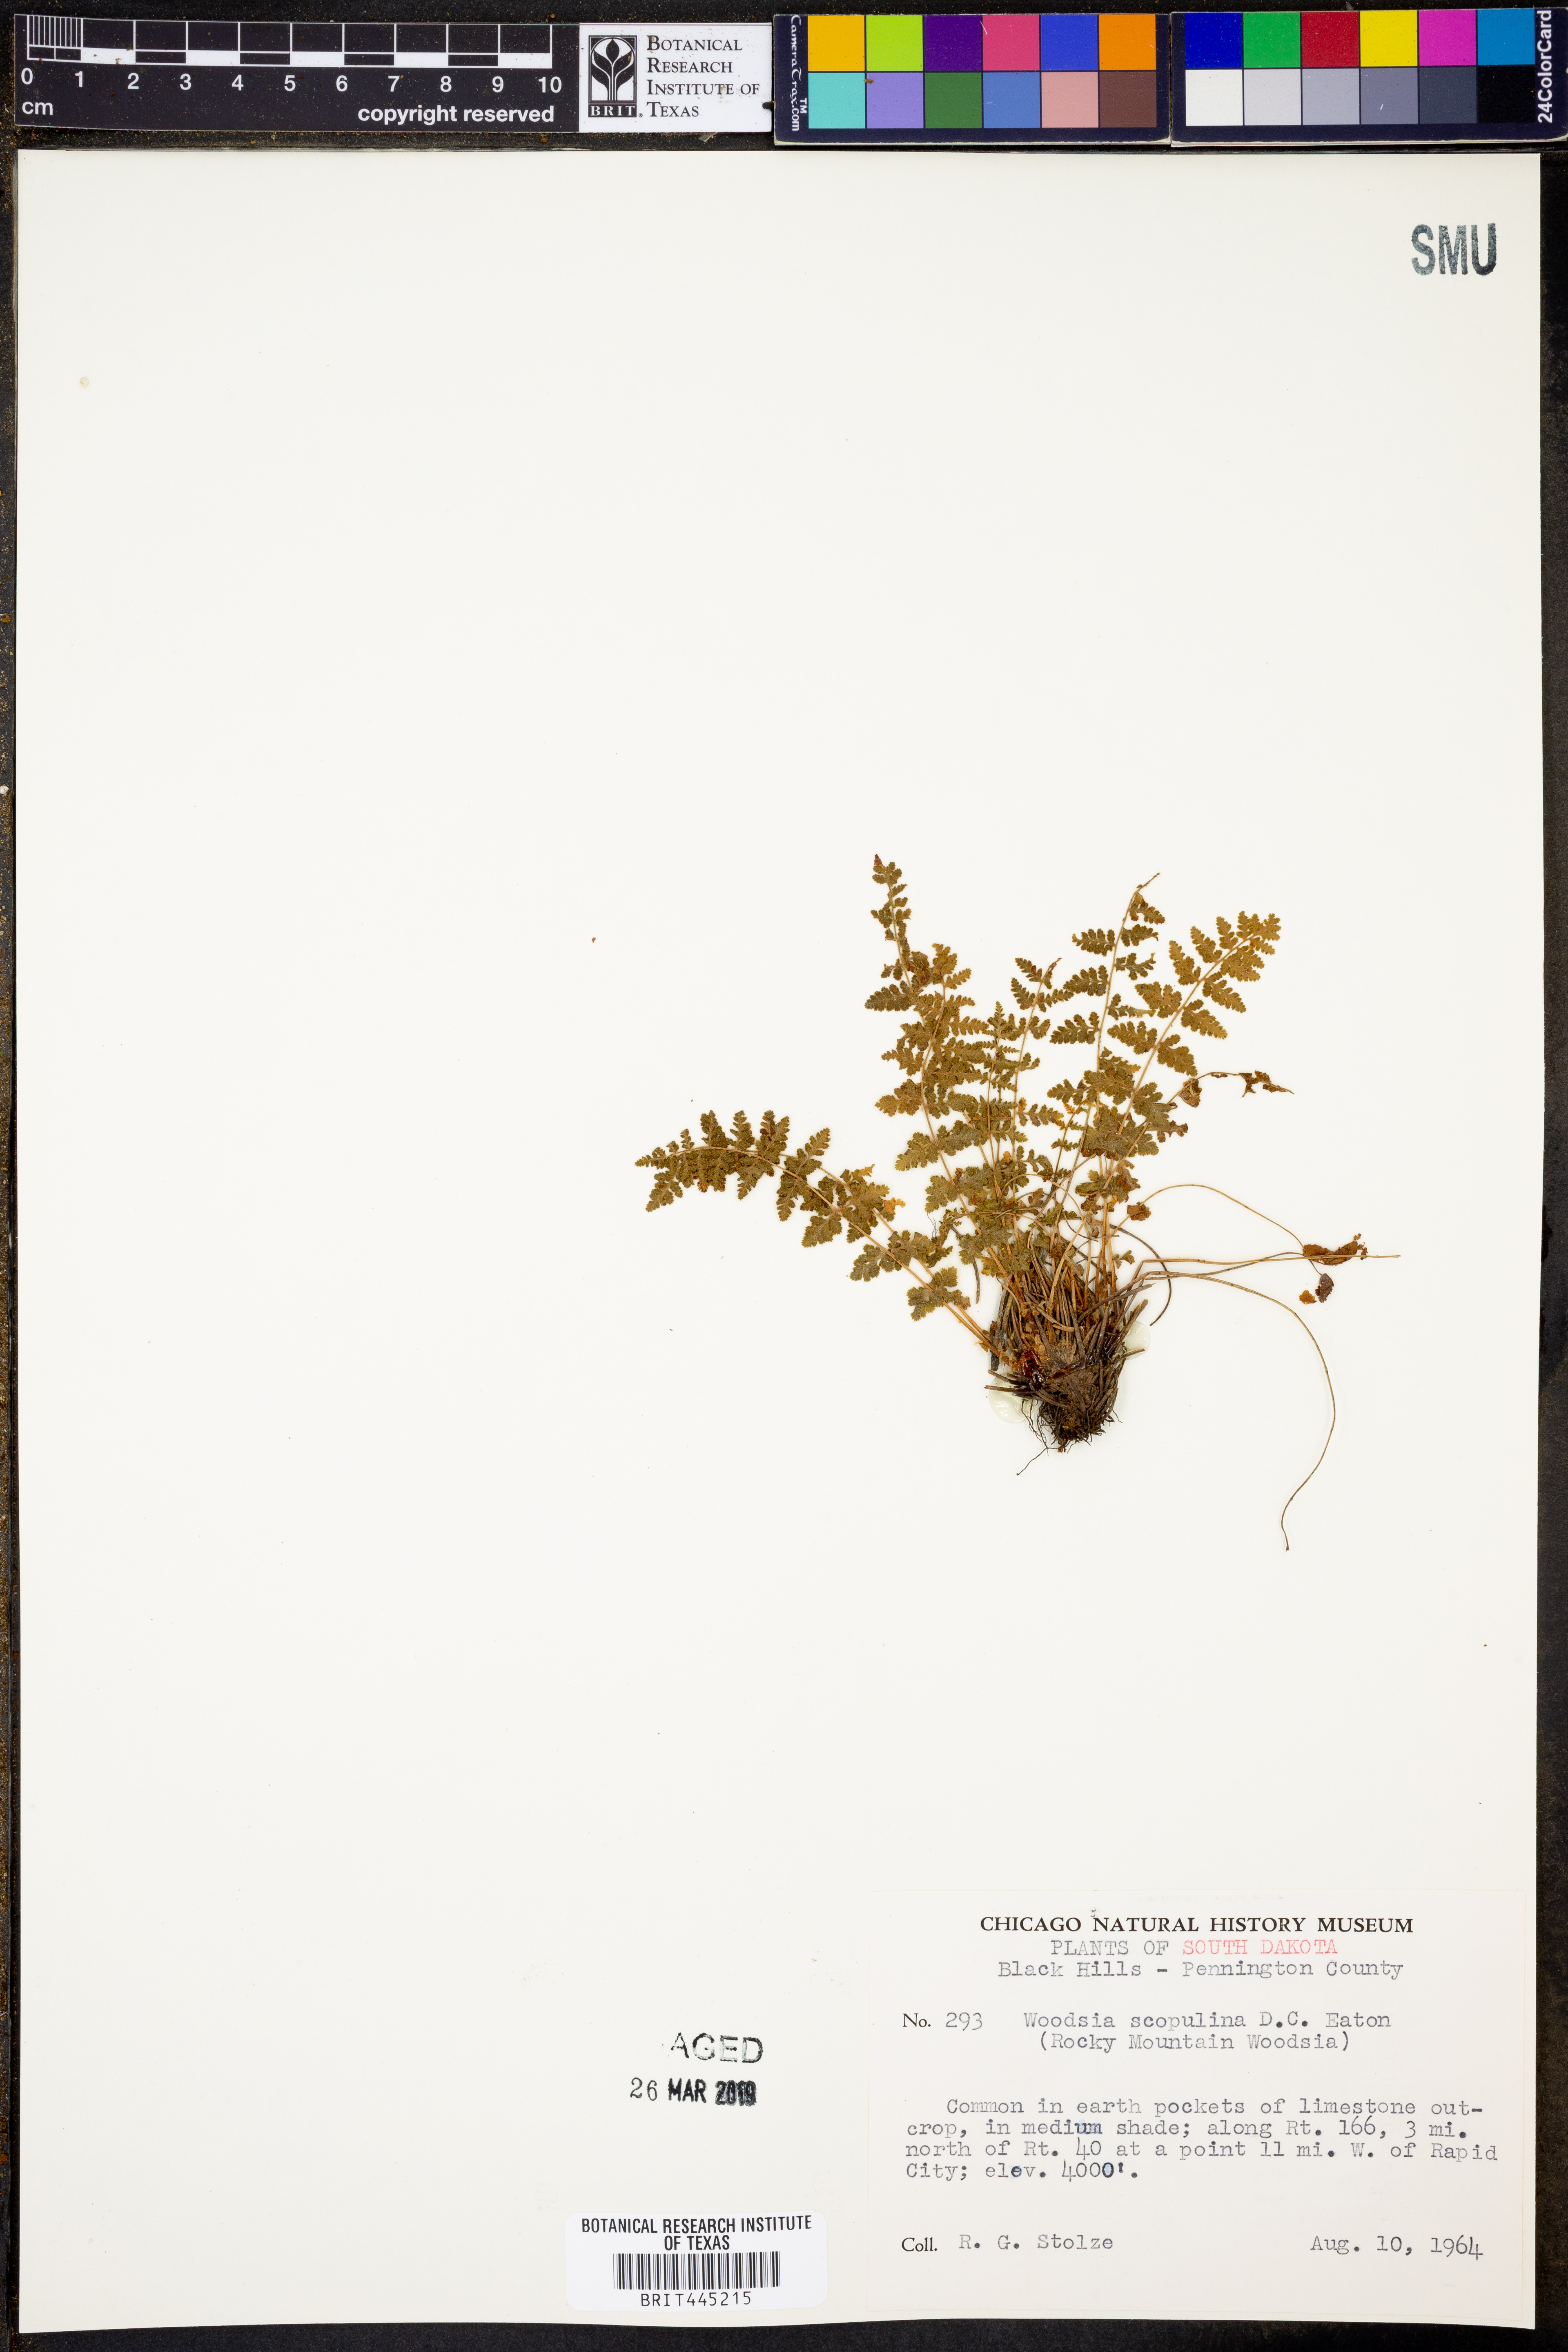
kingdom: Plantae
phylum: Tracheophyta
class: Polypodiopsida
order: Polypodiales
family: Woodsiaceae
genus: Physematium
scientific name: Physematium scopulinum
